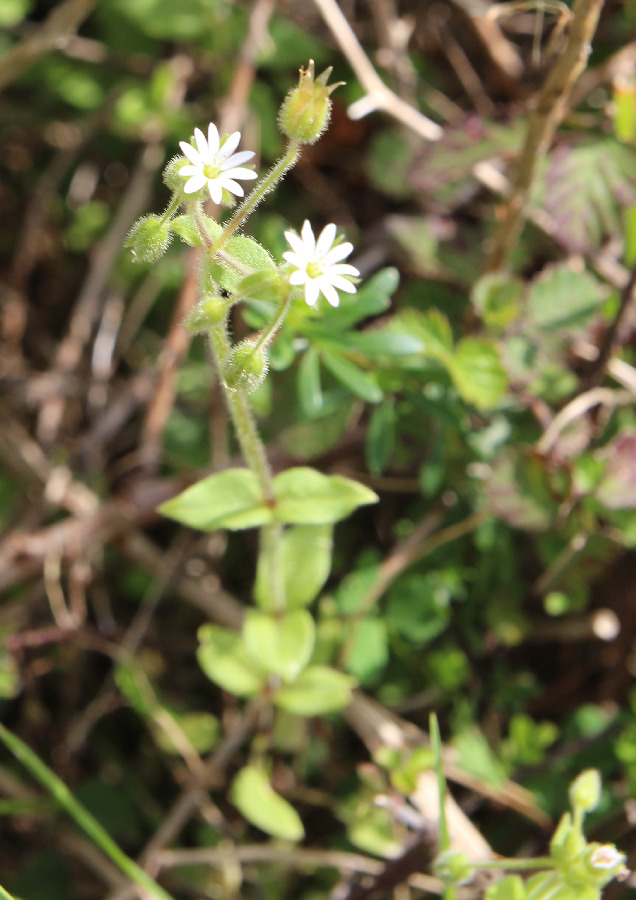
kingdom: Plantae
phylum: Tracheophyta
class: Magnoliopsida
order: Caryophyllales
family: Caryophyllaceae
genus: Stellaria
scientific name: Stellaria cupaniana
